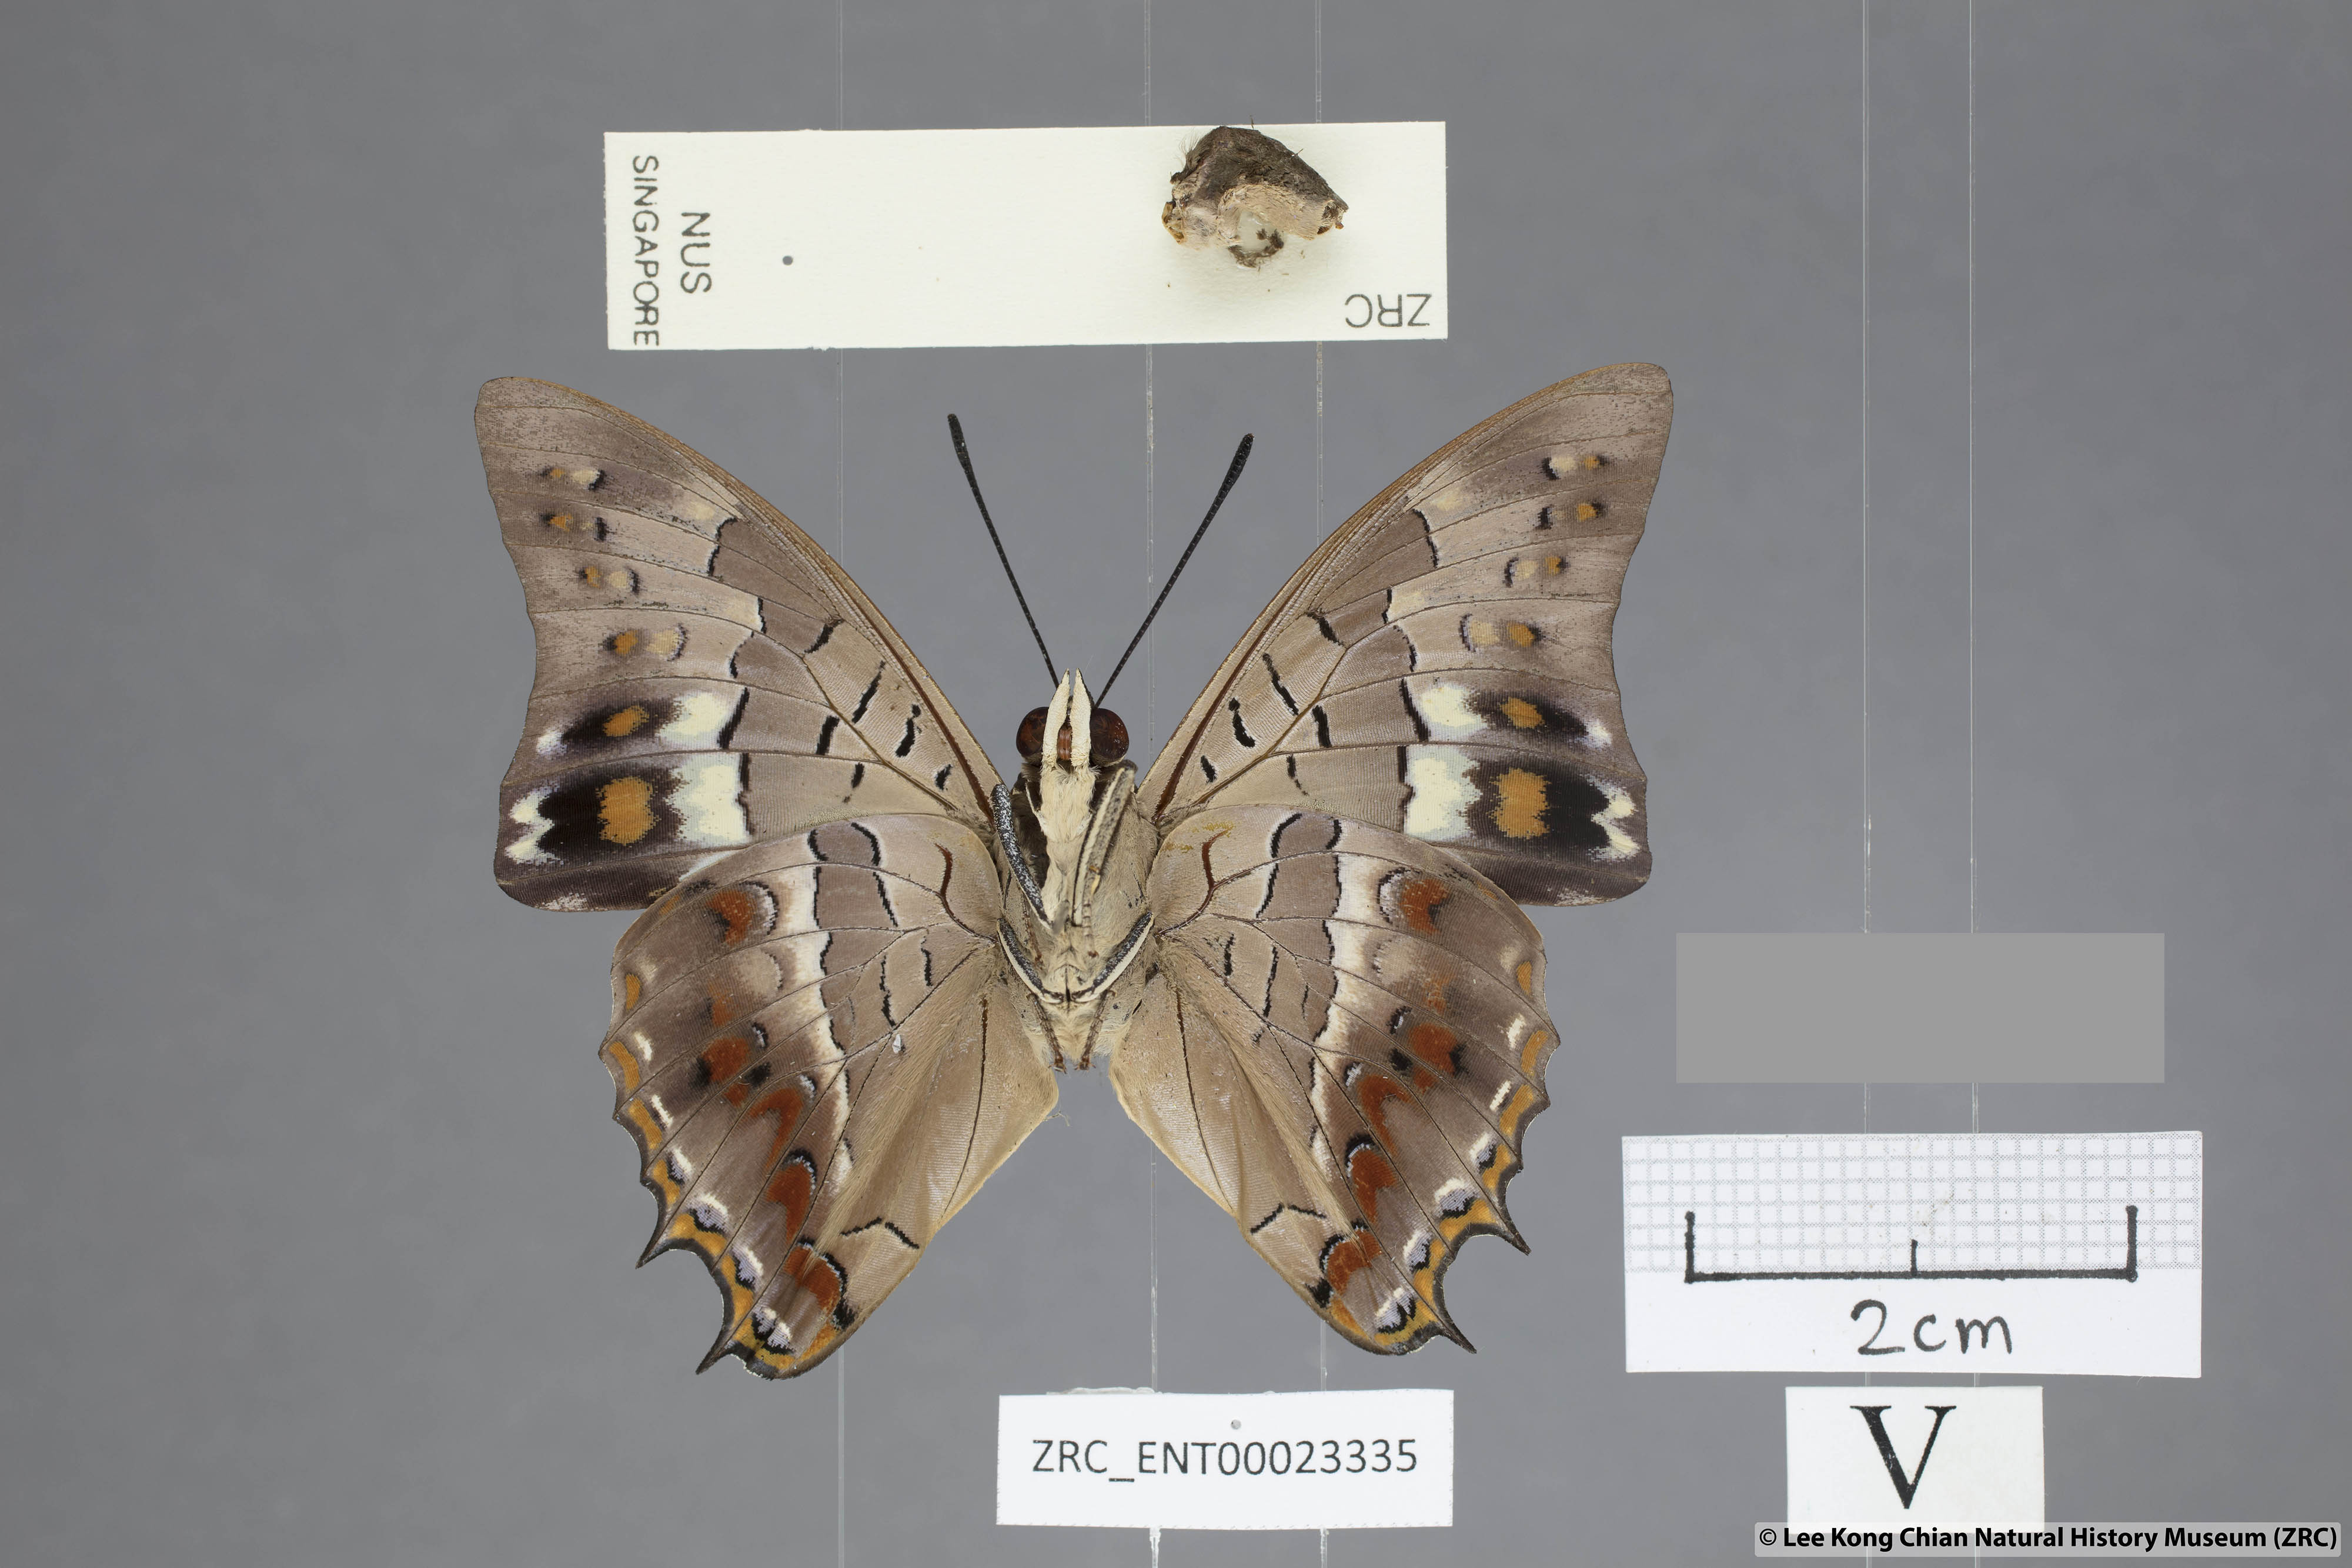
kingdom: Animalia
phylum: Arthropoda
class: Insecta
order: Lepidoptera
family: Nymphalidae
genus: Charaxes
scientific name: Charaxes solon
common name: Black rajah
